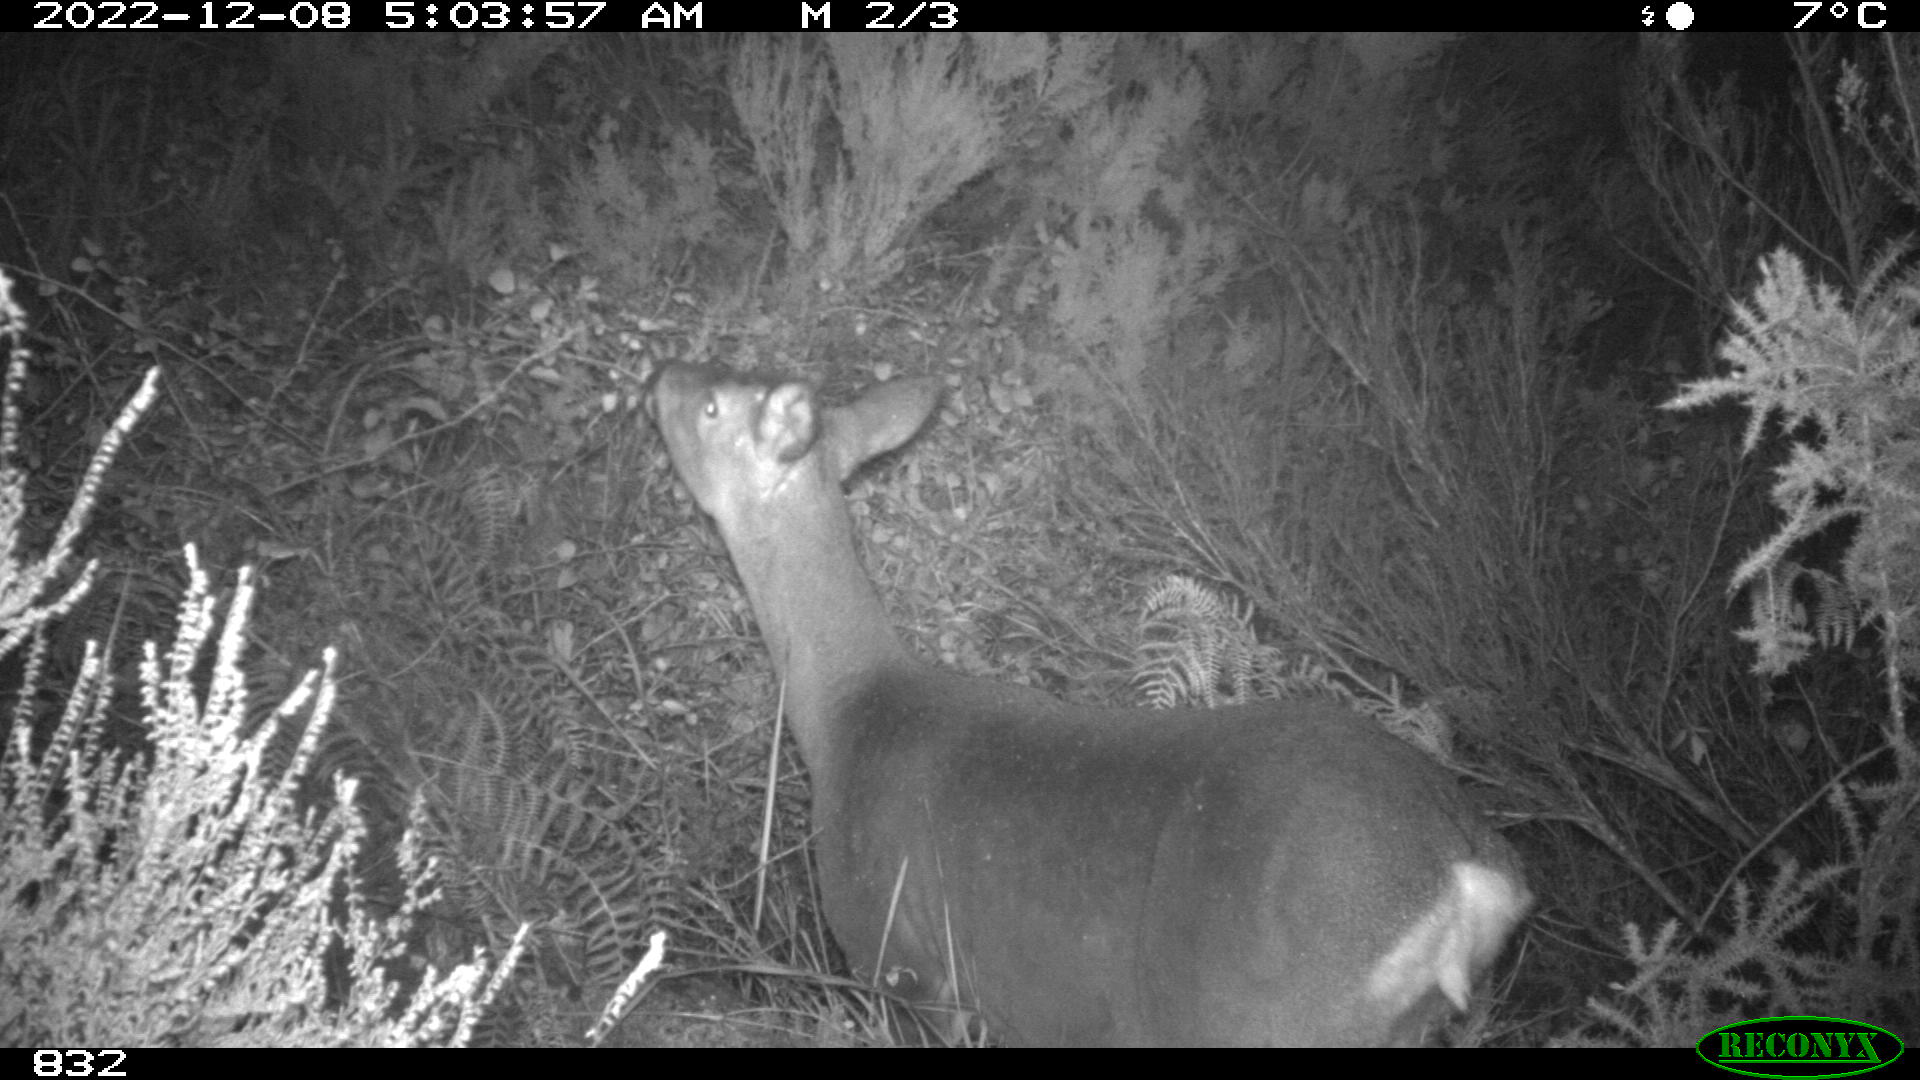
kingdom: Animalia
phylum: Chordata
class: Mammalia
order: Artiodactyla
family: Cervidae
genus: Capreolus
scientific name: Capreolus capreolus
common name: Western roe deer
